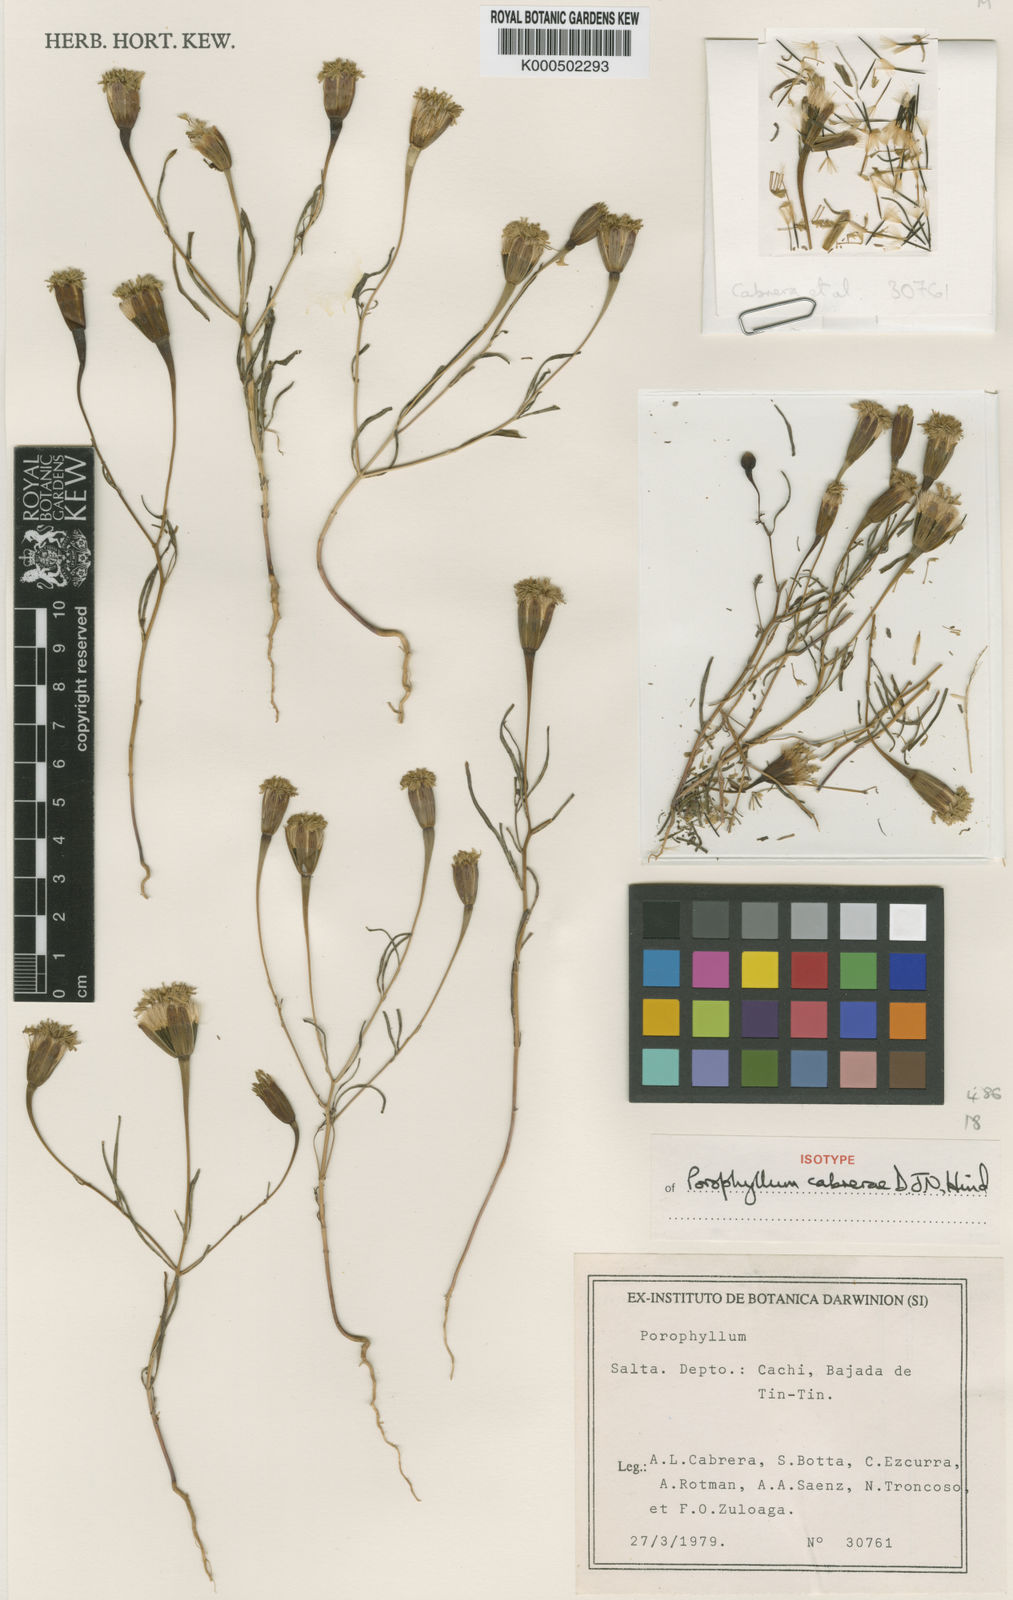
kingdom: Plantae
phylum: Tracheophyta
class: Magnoliopsida
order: Asterales
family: Asteraceae
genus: Porophyllum
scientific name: Porophyllum cabrerae
